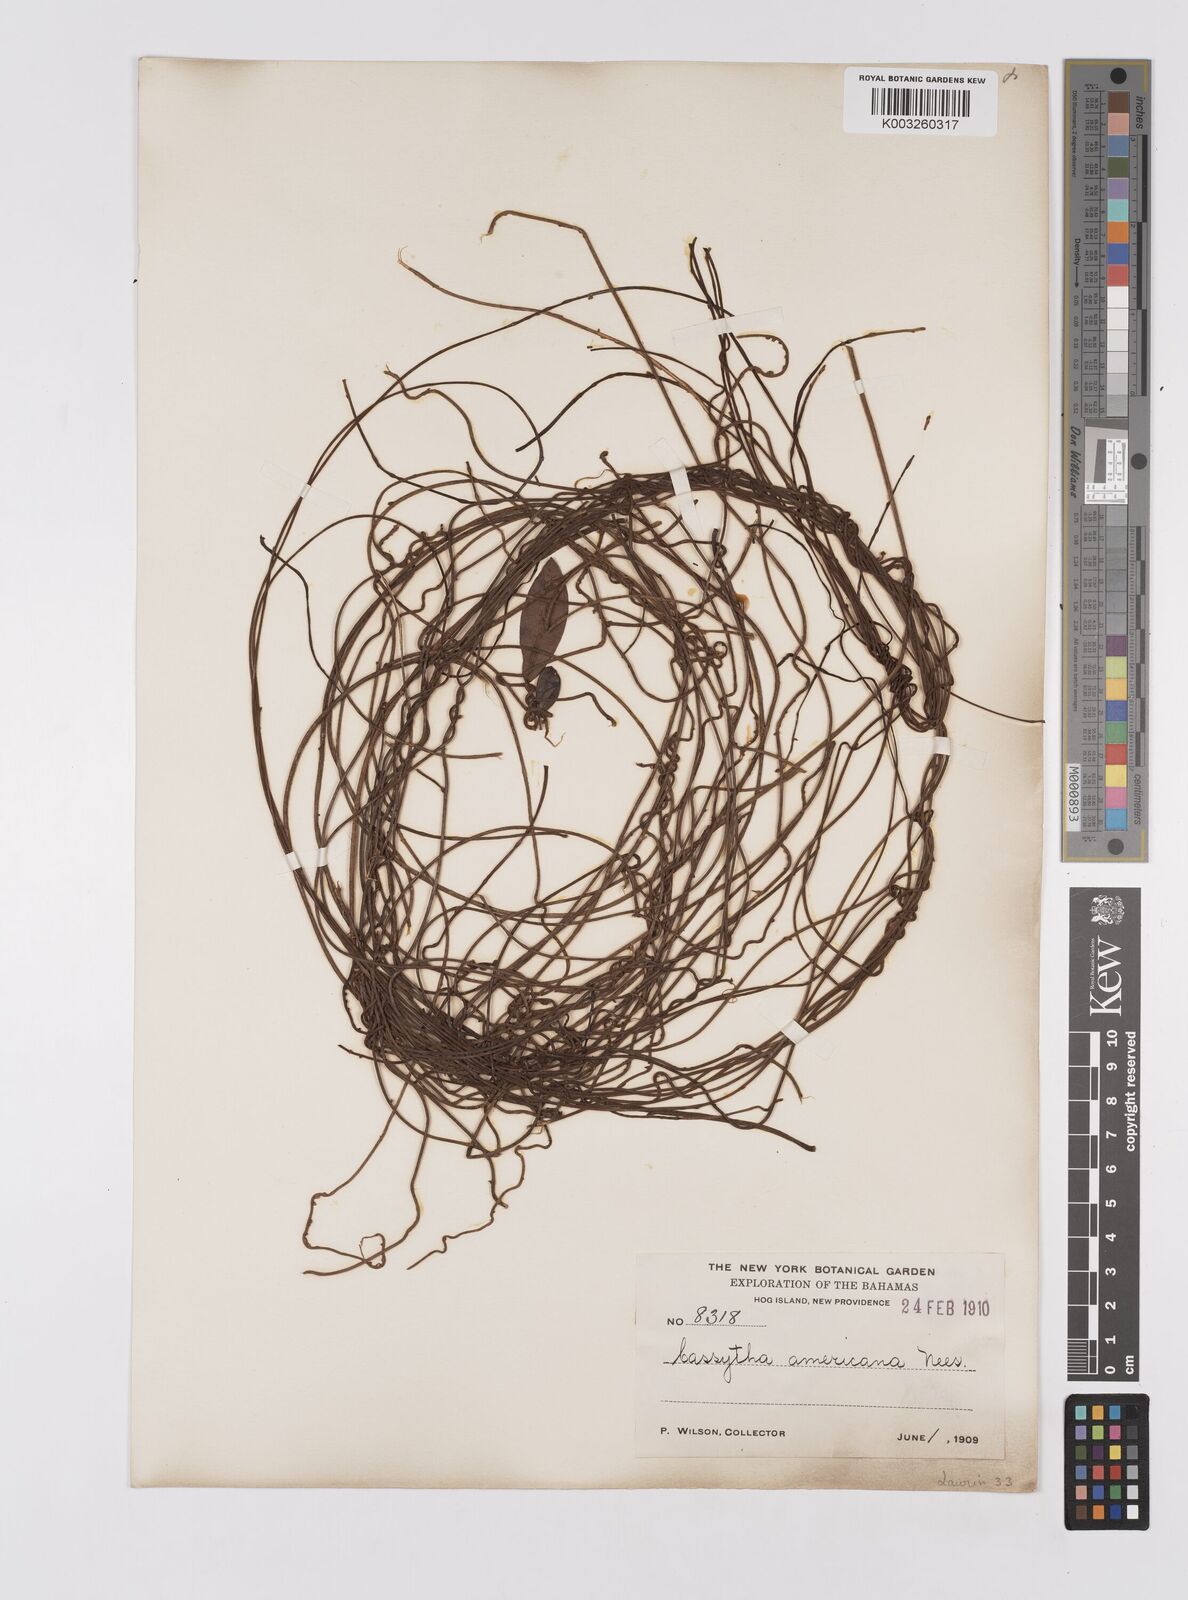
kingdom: Plantae
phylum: Tracheophyta
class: Magnoliopsida
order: Laurales
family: Lauraceae
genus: Cassytha
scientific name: Cassytha filiformis
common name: Dodder-laurel
